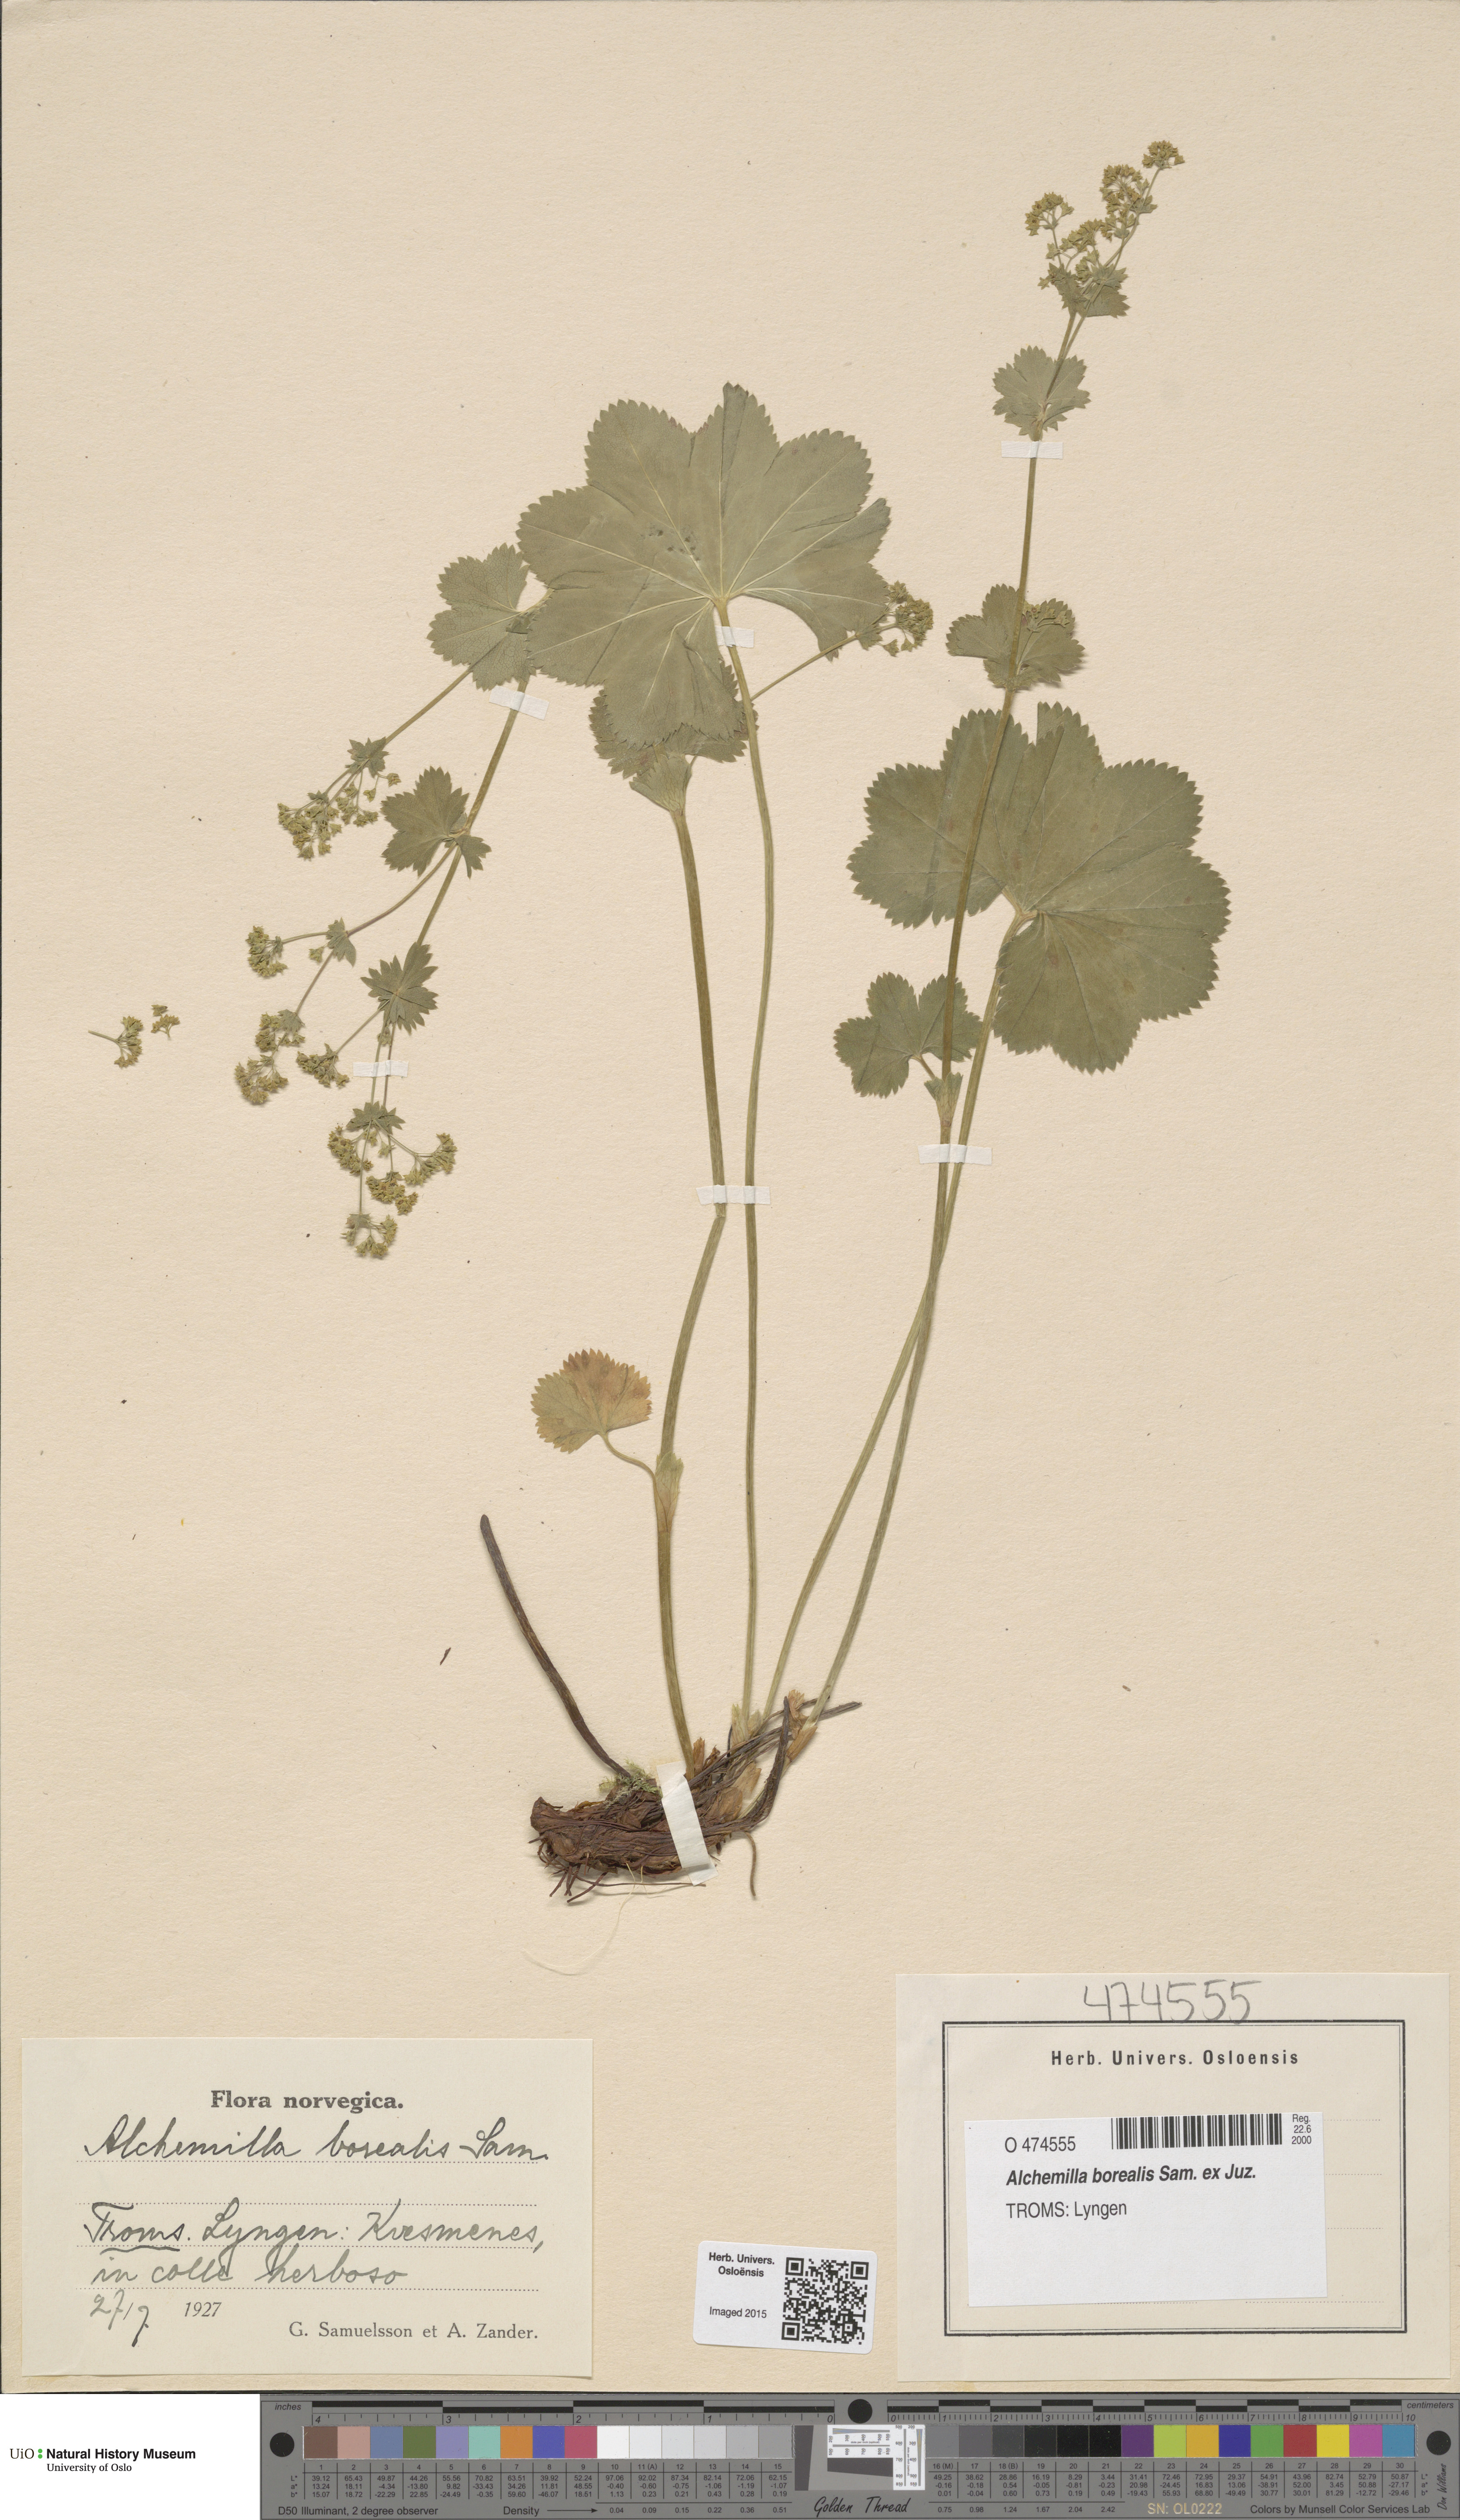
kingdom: Plantae
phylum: Tracheophyta
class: Magnoliopsida
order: Rosales
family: Rosaceae
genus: Alchemilla
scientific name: Alchemilla borealis
